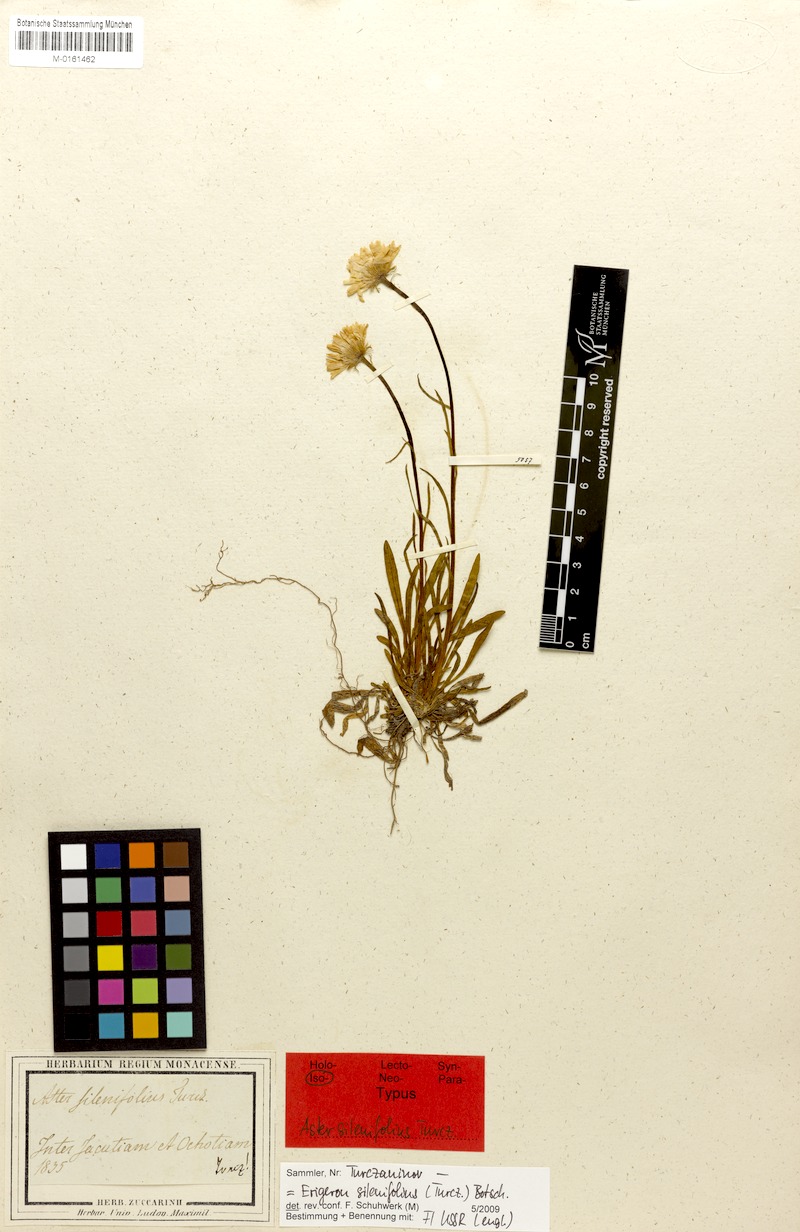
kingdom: Plantae
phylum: Tracheophyta
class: Magnoliopsida
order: Asterales
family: Asteraceae
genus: Erigeron
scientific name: Erigeron silenifolius
